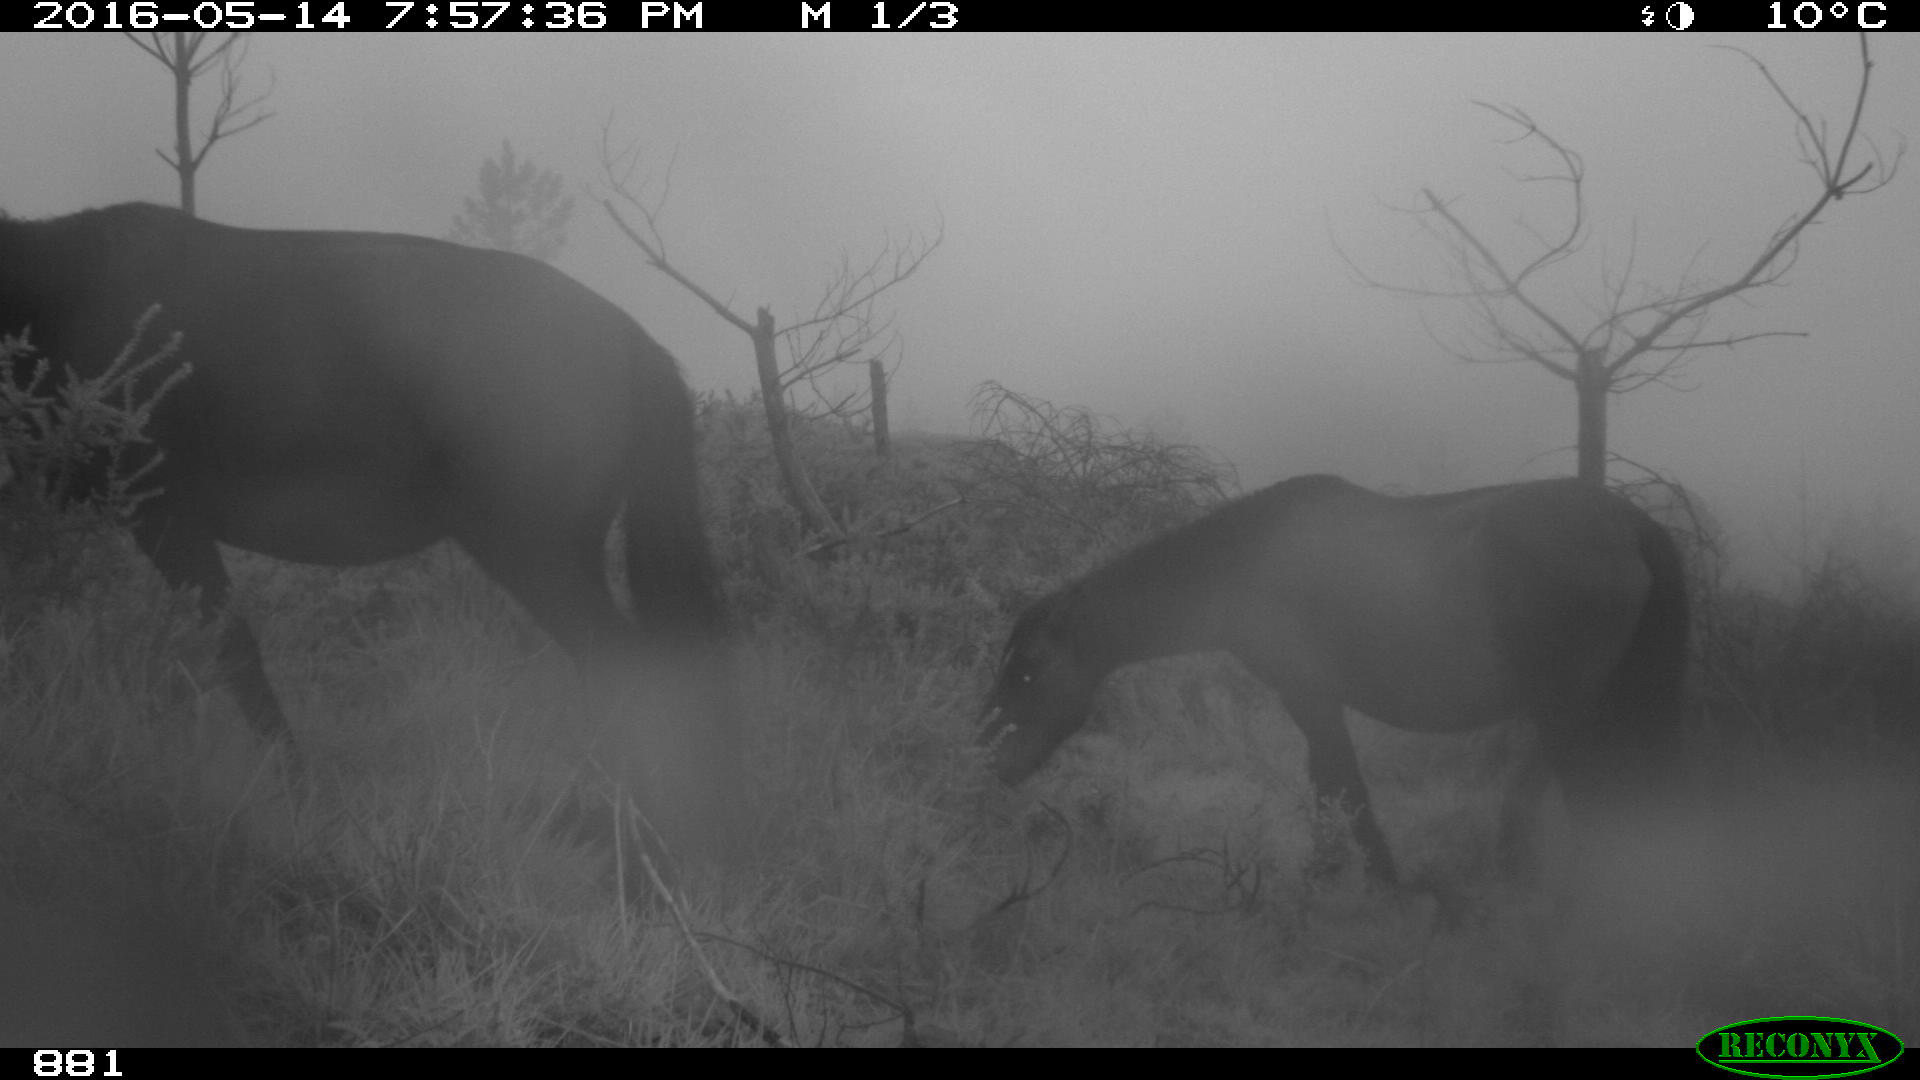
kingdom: Animalia
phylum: Chordata
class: Mammalia
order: Perissodactyla
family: Equidae
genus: Equus
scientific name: Equus caballus
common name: Horse
